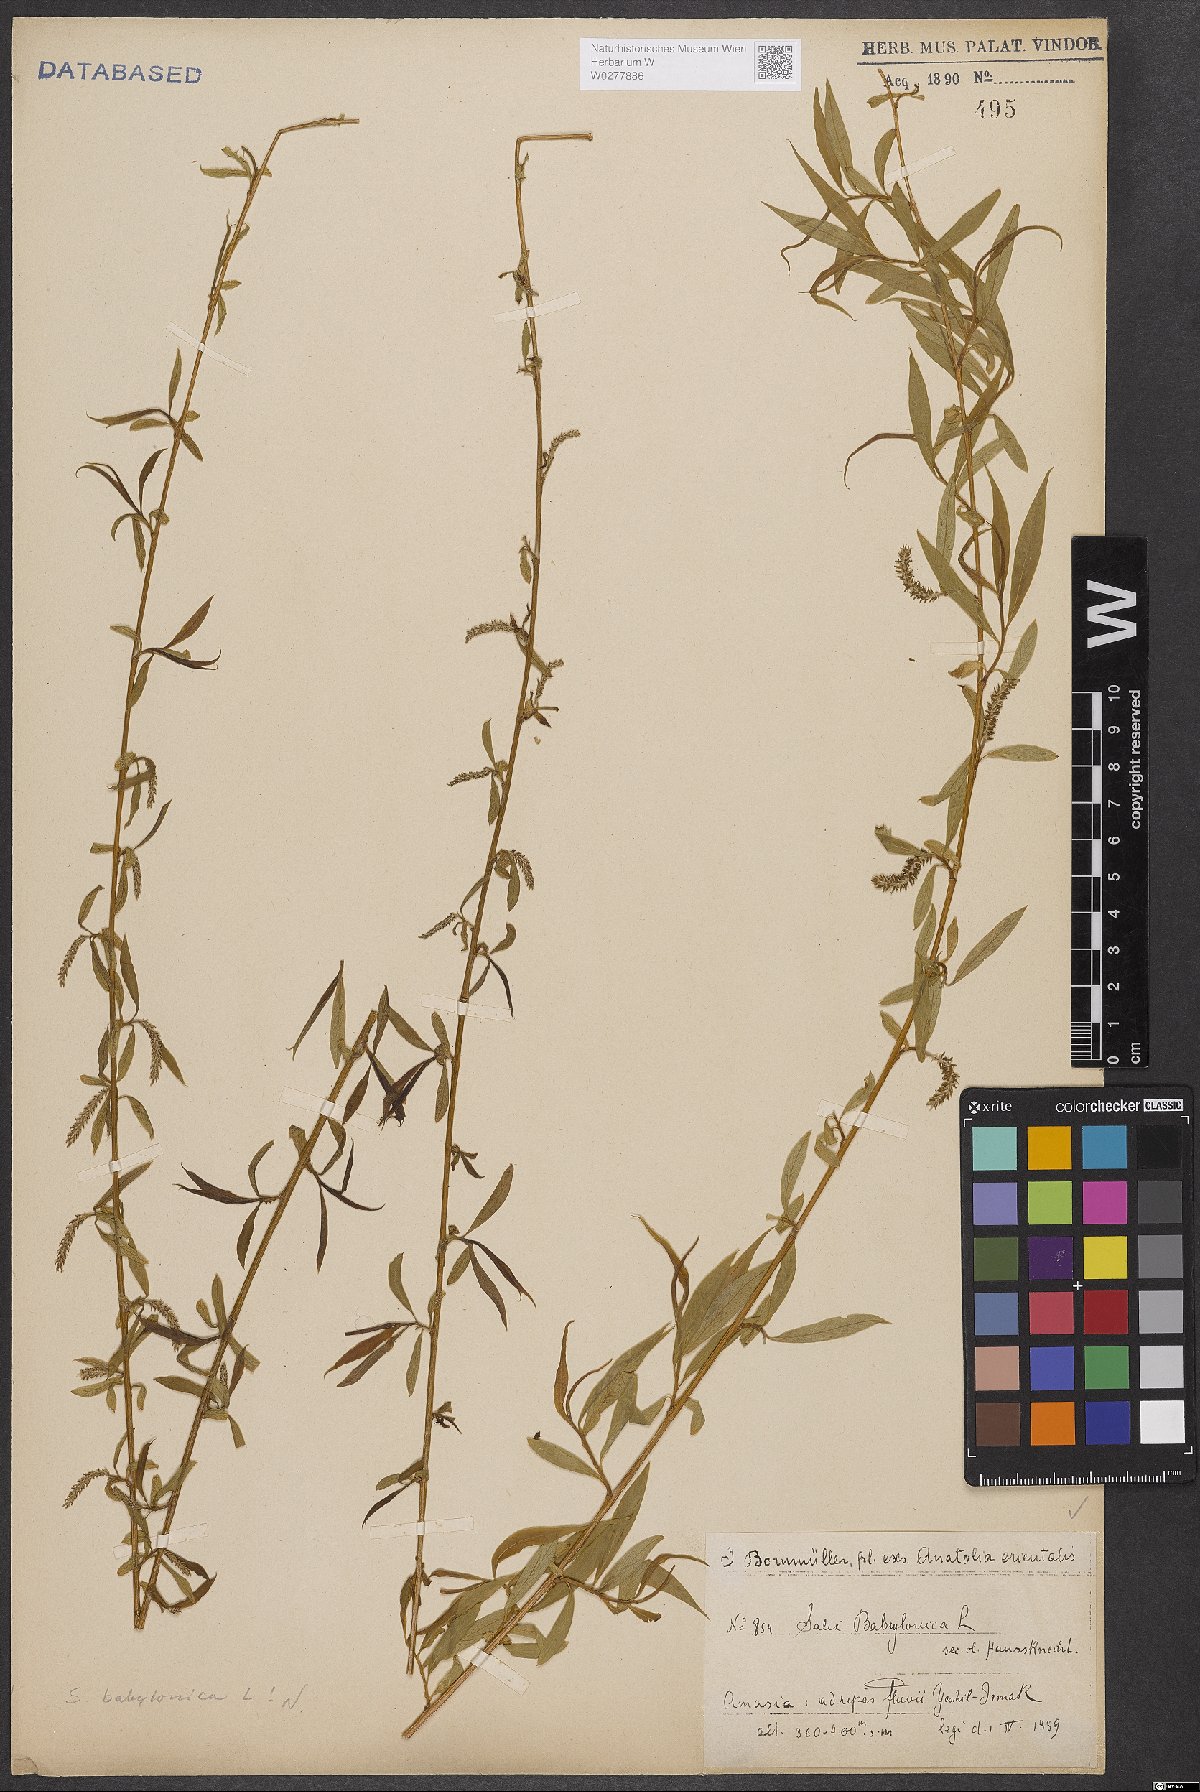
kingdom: Plantae
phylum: Tracheophyta
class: Magnoliopsida
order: Malpighiales
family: Salicaceae
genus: Salix
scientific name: Salix babylonica
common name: Weeping willow
